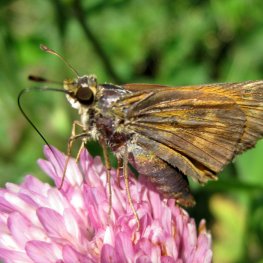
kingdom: Animalia
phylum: Arthropoda
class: Insecta
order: Lepidoptera
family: Hesperiidae
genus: Atalopedes
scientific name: Atalopedes campestris
